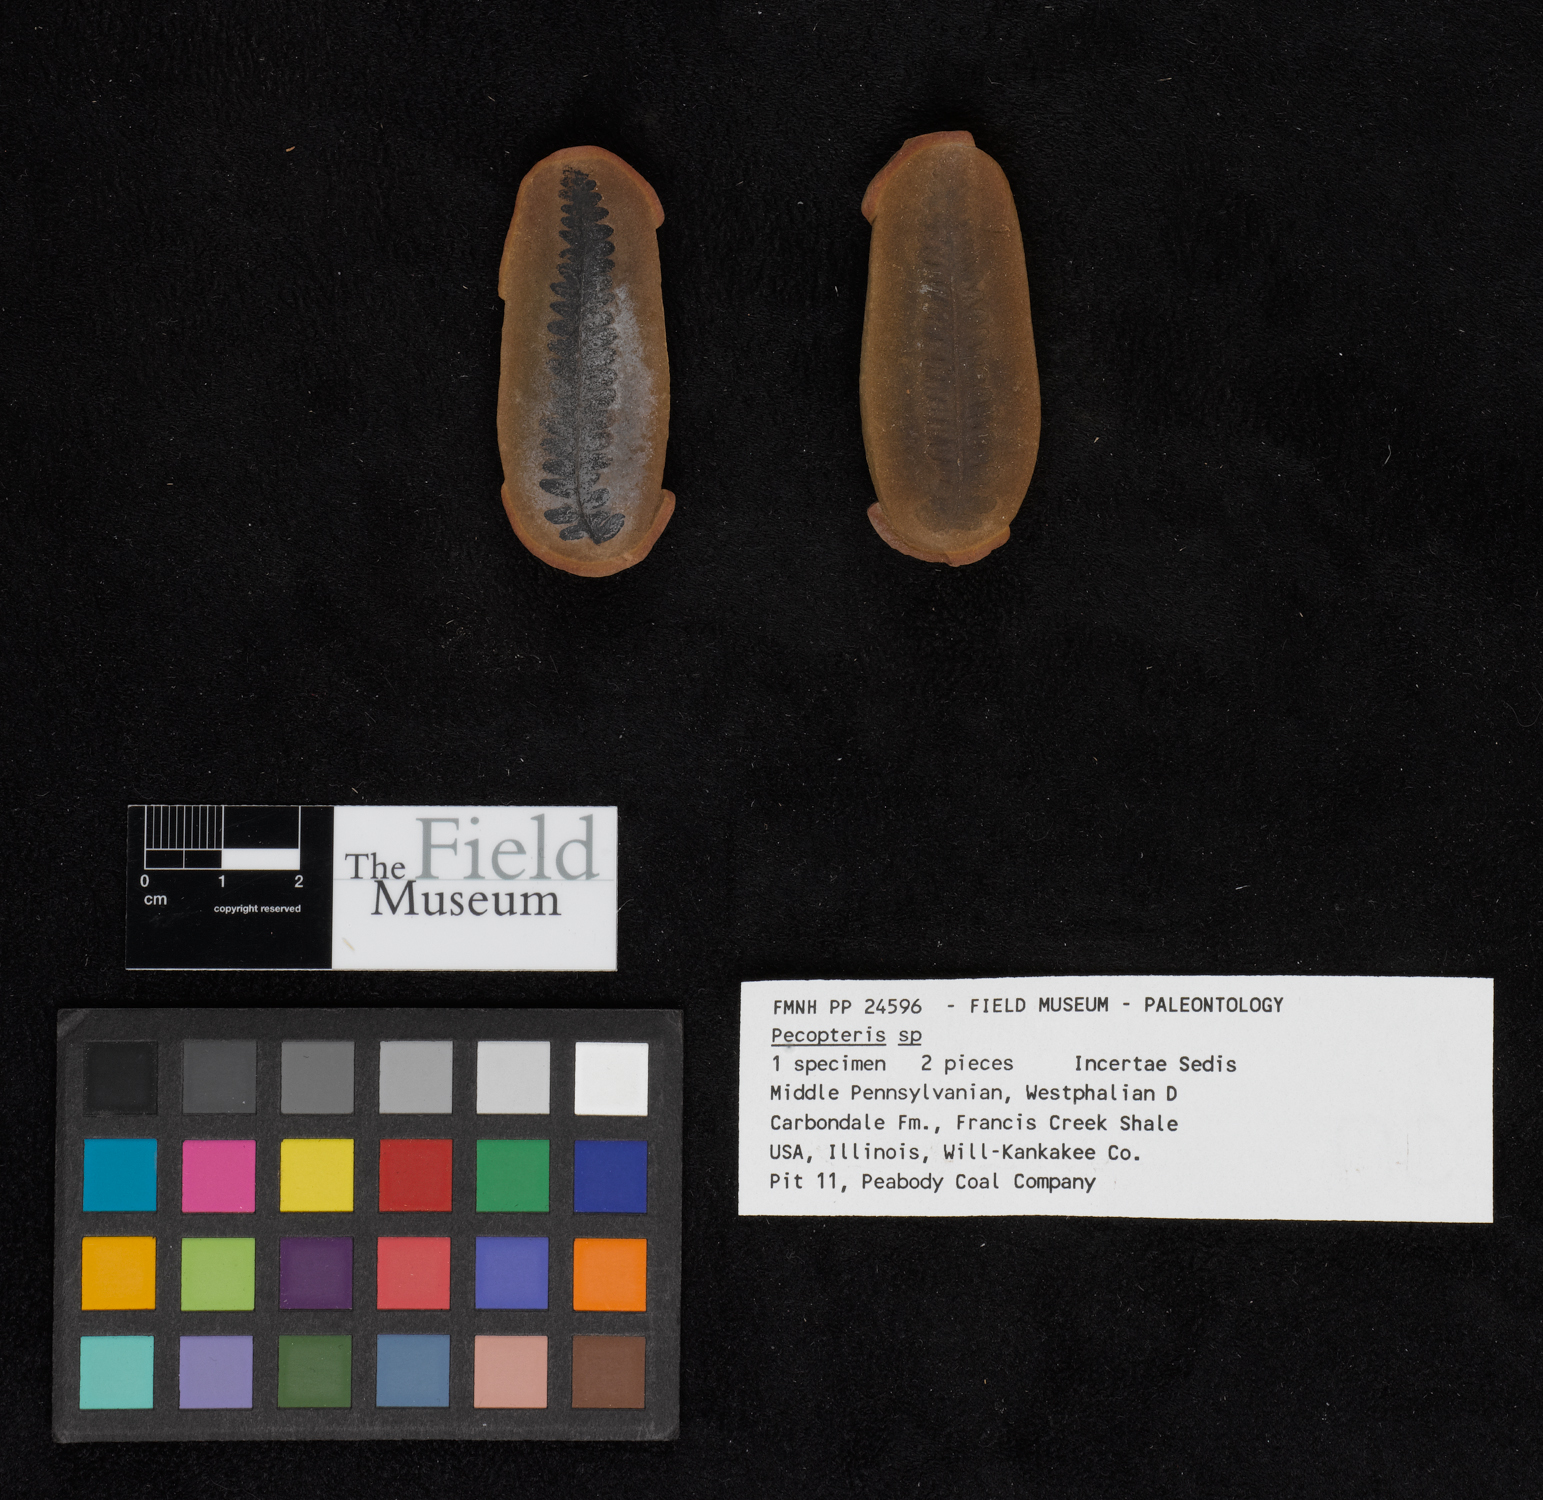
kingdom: Plantae
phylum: Tracheophyta
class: Polypodiopsida
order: Marattiales
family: Asterothecaceae
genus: Pecopteris
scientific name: Pecopteris
